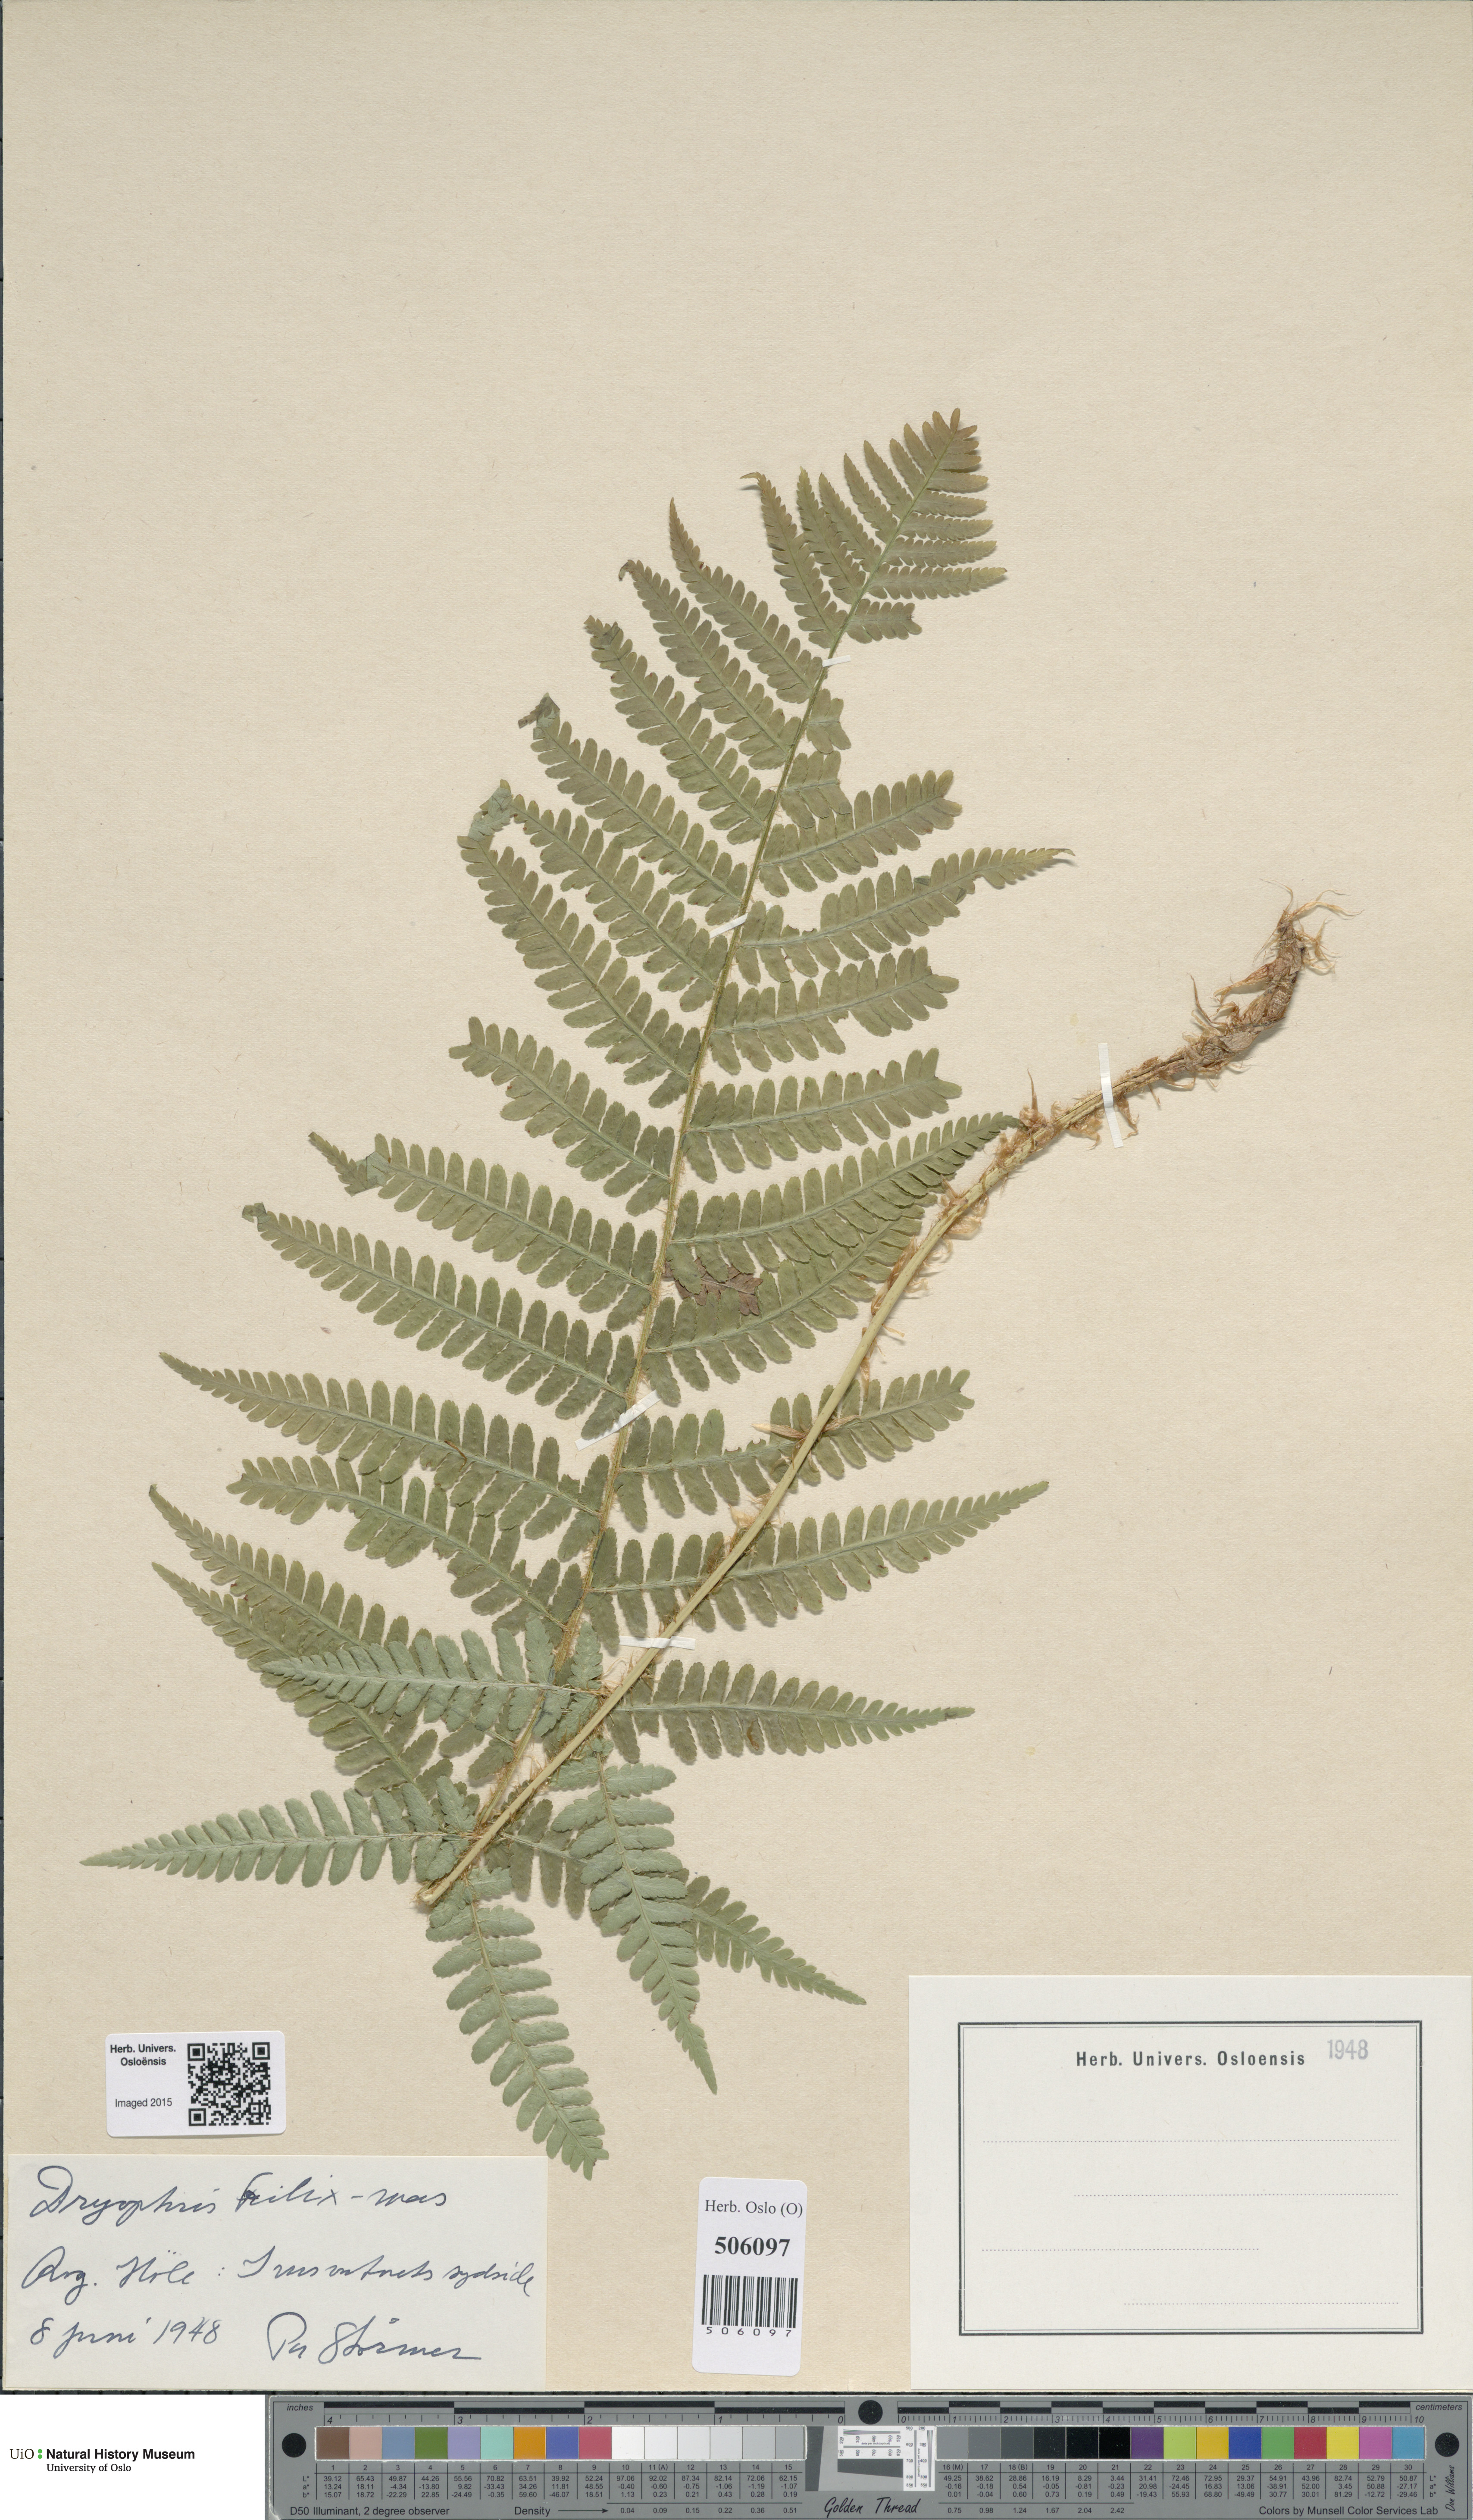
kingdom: Plantae
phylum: Tracheophyta
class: Polypodiopsida
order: Polypodiales
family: Dryopteridaceae
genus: Dryopteris
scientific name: Dryopteris filix-mas
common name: Male fern
